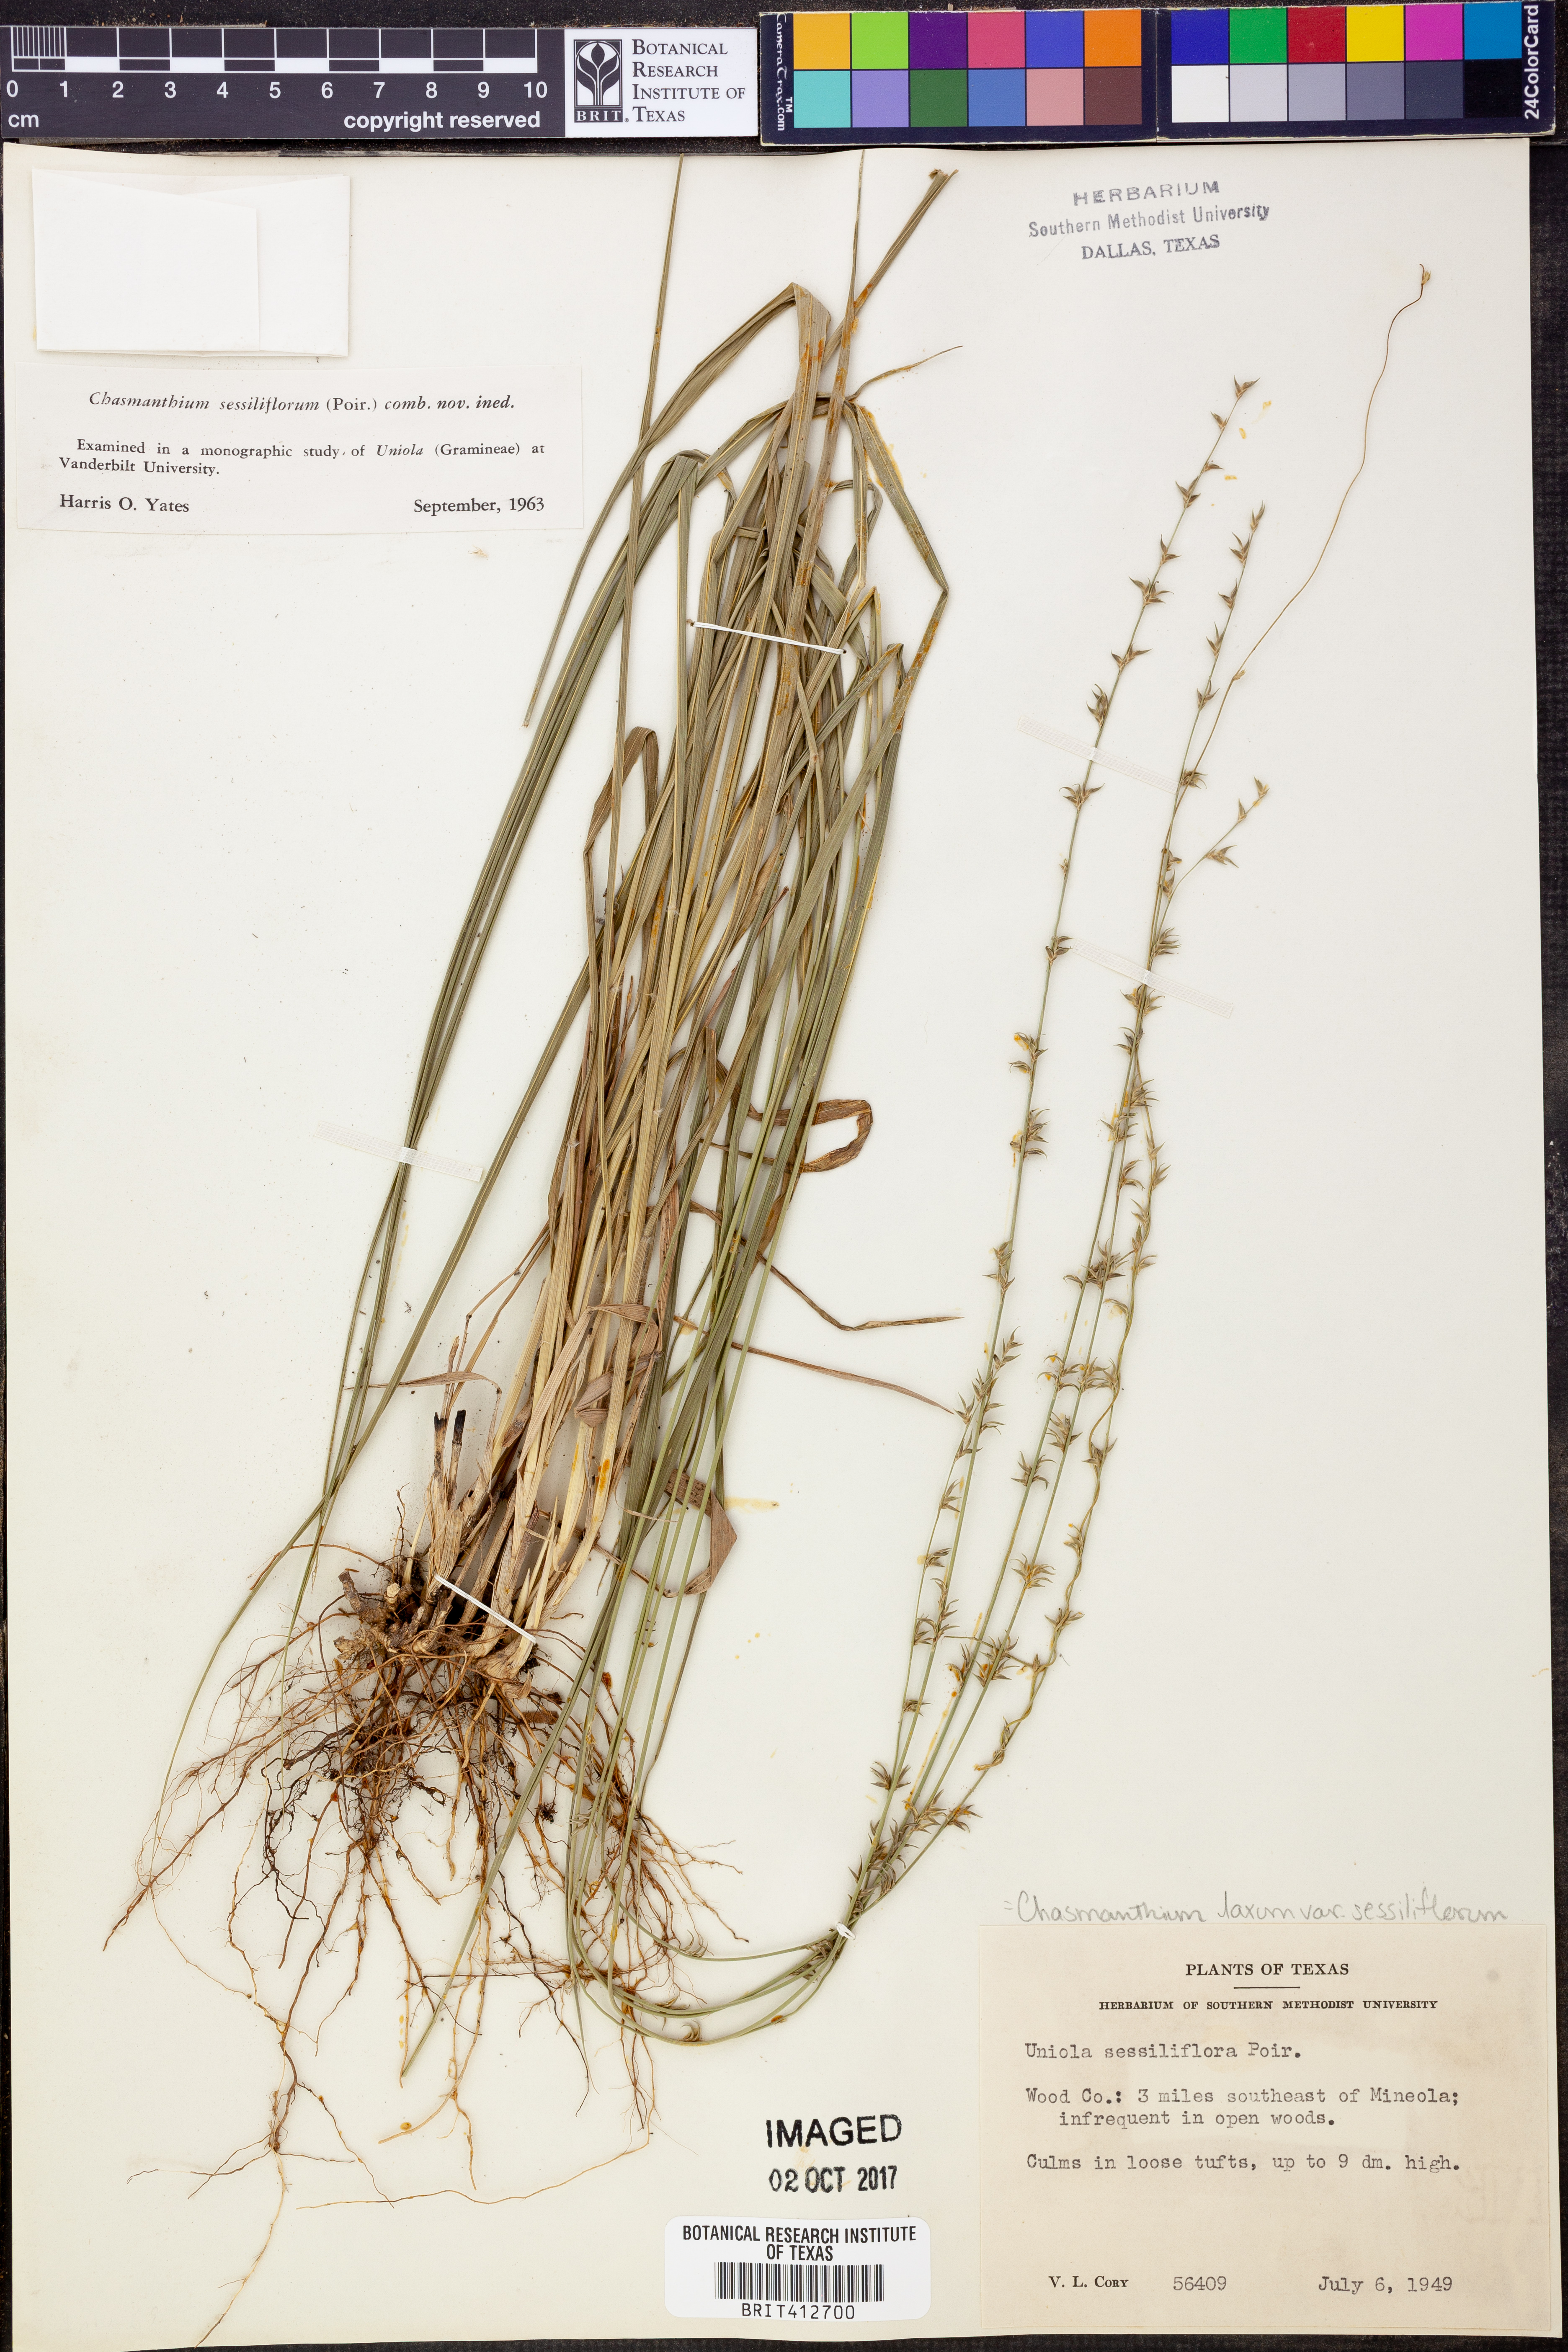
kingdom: Plantae
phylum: Tracheophyta
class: Liliopsida
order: Poales
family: Poaceae
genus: Chasmanthium
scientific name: Chasmanthium laxum
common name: Slender chasmanthium
